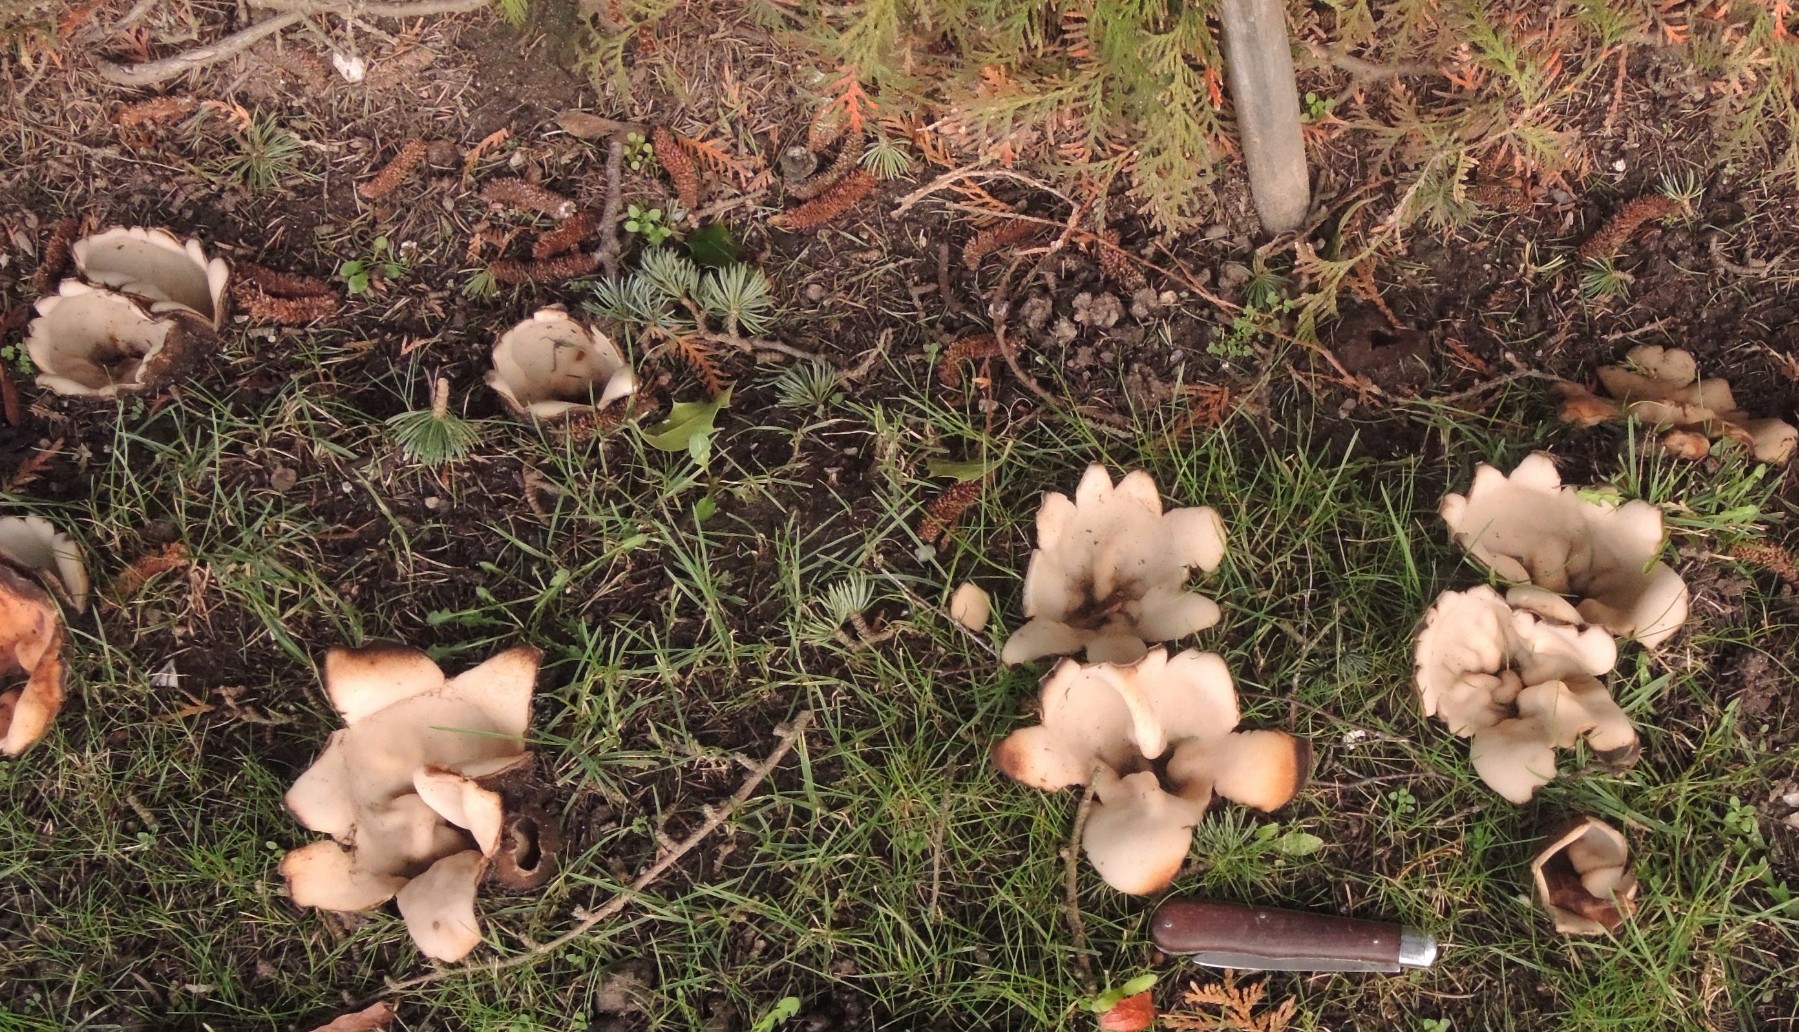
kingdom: Fungi
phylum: Ascomycota
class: Pezizomycetes
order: Pezizales
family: Pyronemataceae
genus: Geopora
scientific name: Geopora sumneriana
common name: vår-jordbæger
